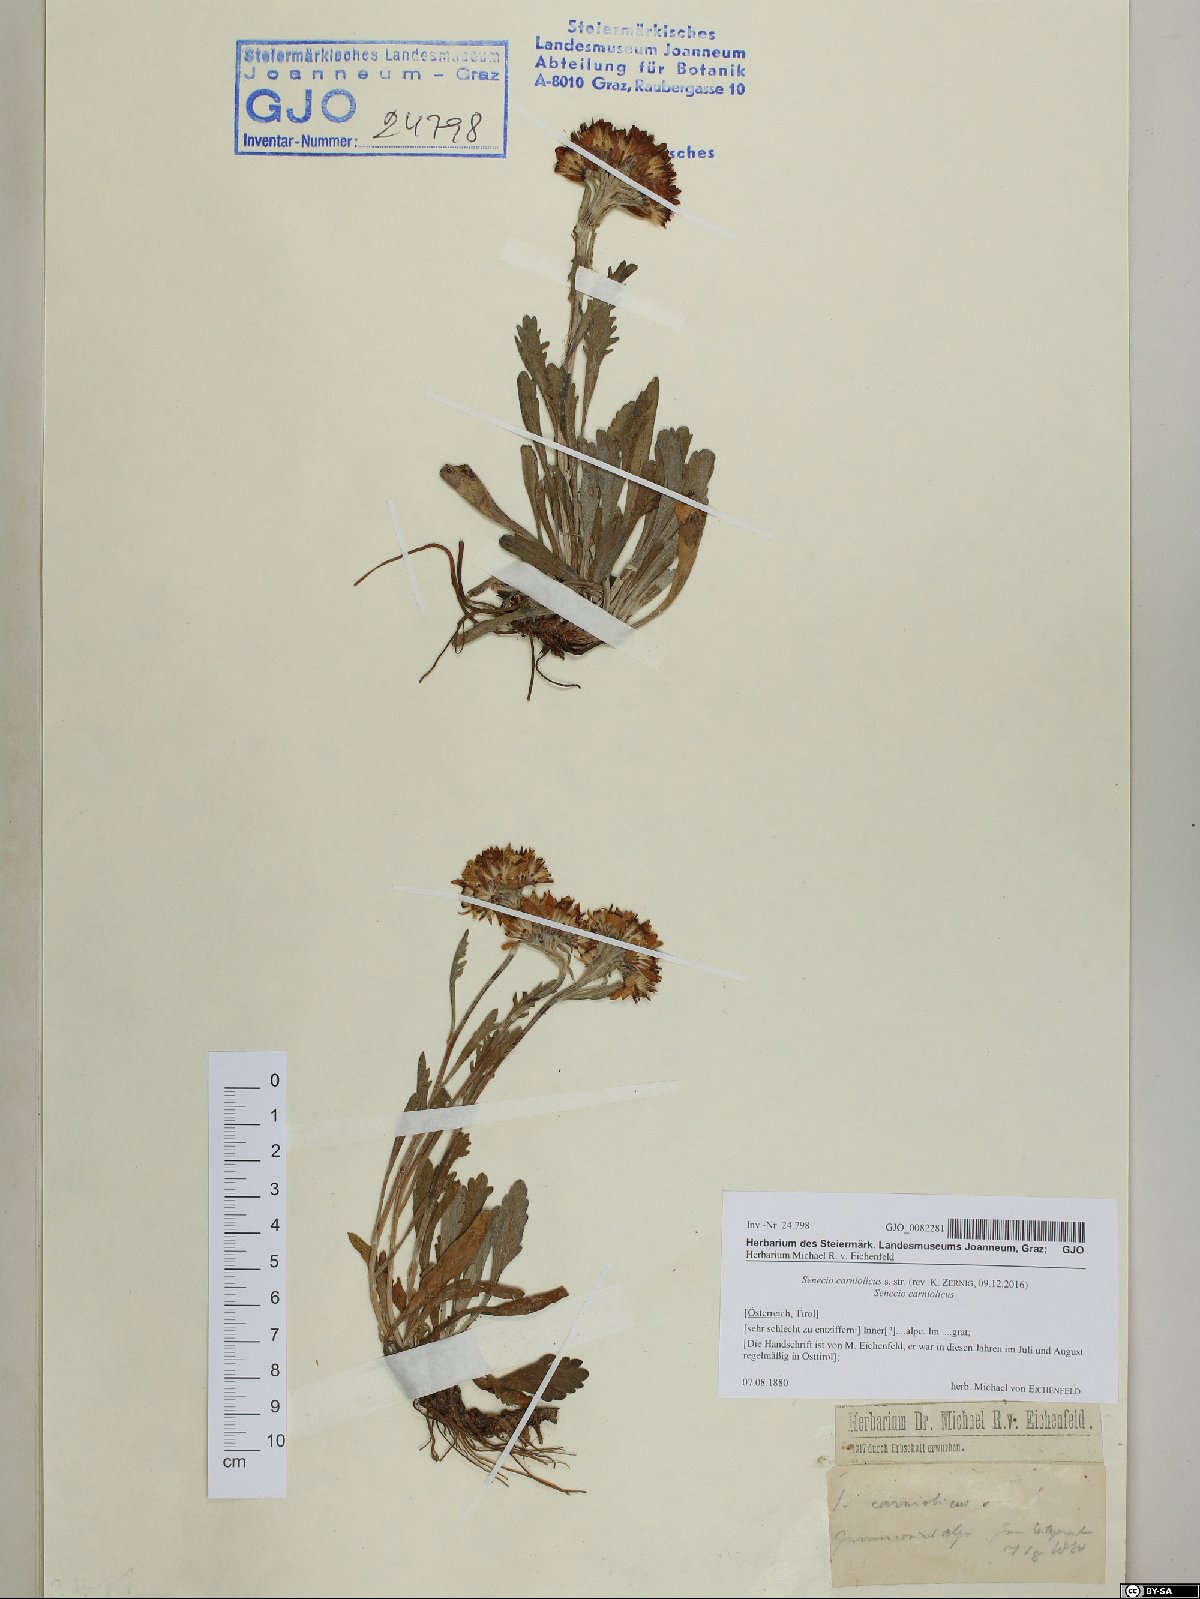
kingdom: Plantae
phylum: Tracheophyta
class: Magnoliopsida
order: Asterales
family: Asteraceae
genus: Jacobaea
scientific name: Jacobaea carniolica
